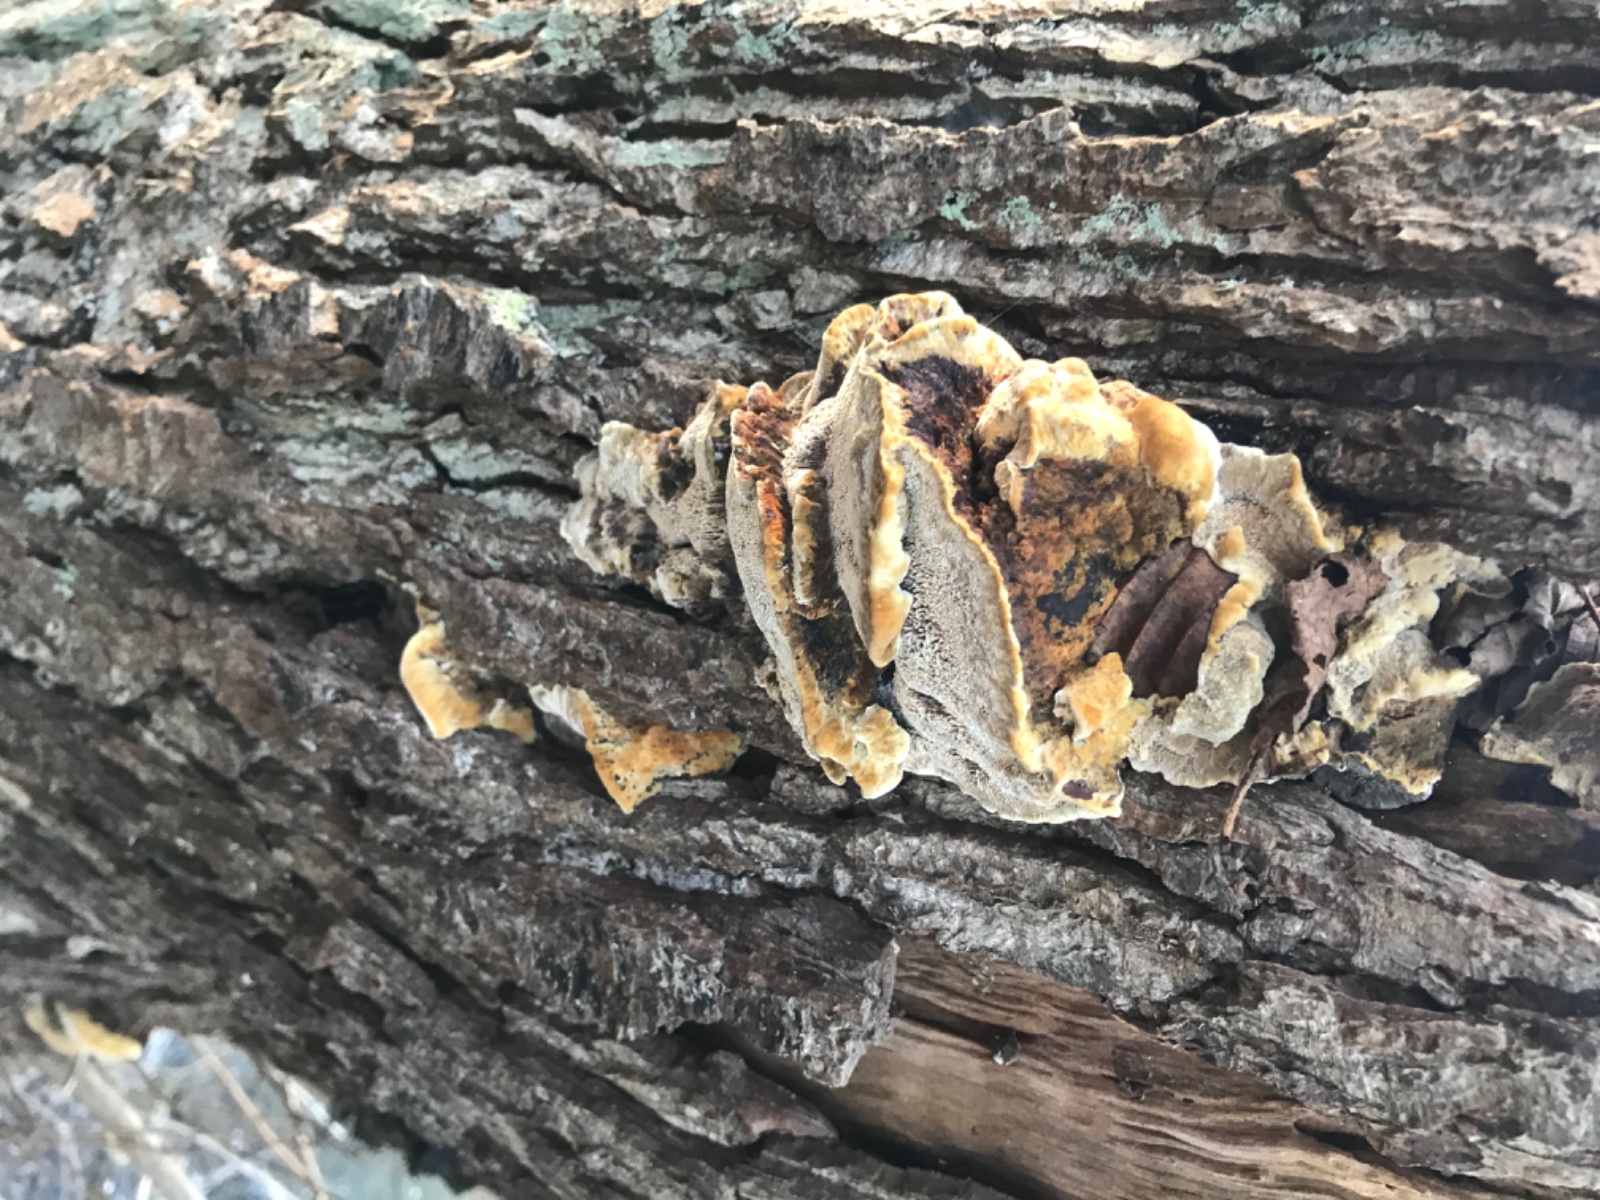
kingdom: Fungi
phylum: Basidiomycota
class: Agaricomycetes
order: Hymenochaetales
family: Hymenochaetaceae
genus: Xanthoporia
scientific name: Xanthoporia radiata
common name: elle-spejlporesvamp
